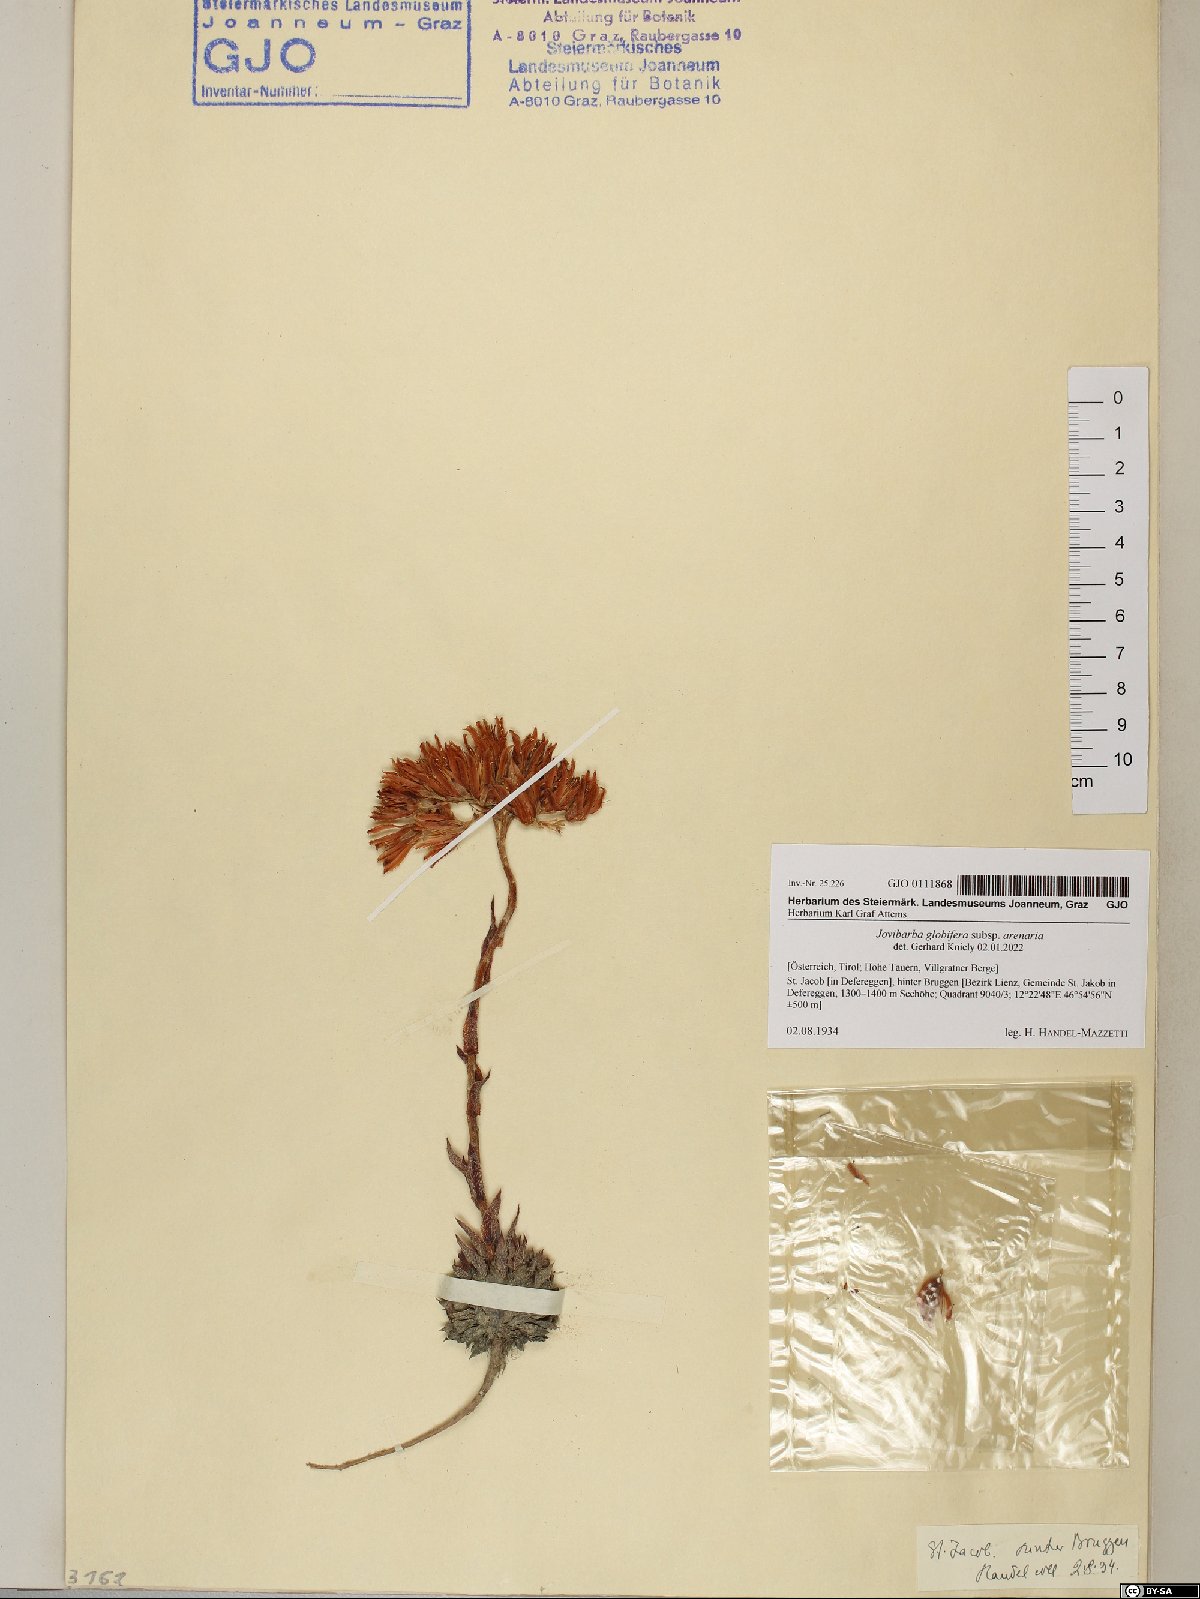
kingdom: Plantae
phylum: Tracheophyta
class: Magnoliopsida
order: Saxifragales
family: Crassulaceae
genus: Sempervivum
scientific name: Sempervivum globiferum
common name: Rolling hen-and-chicks
